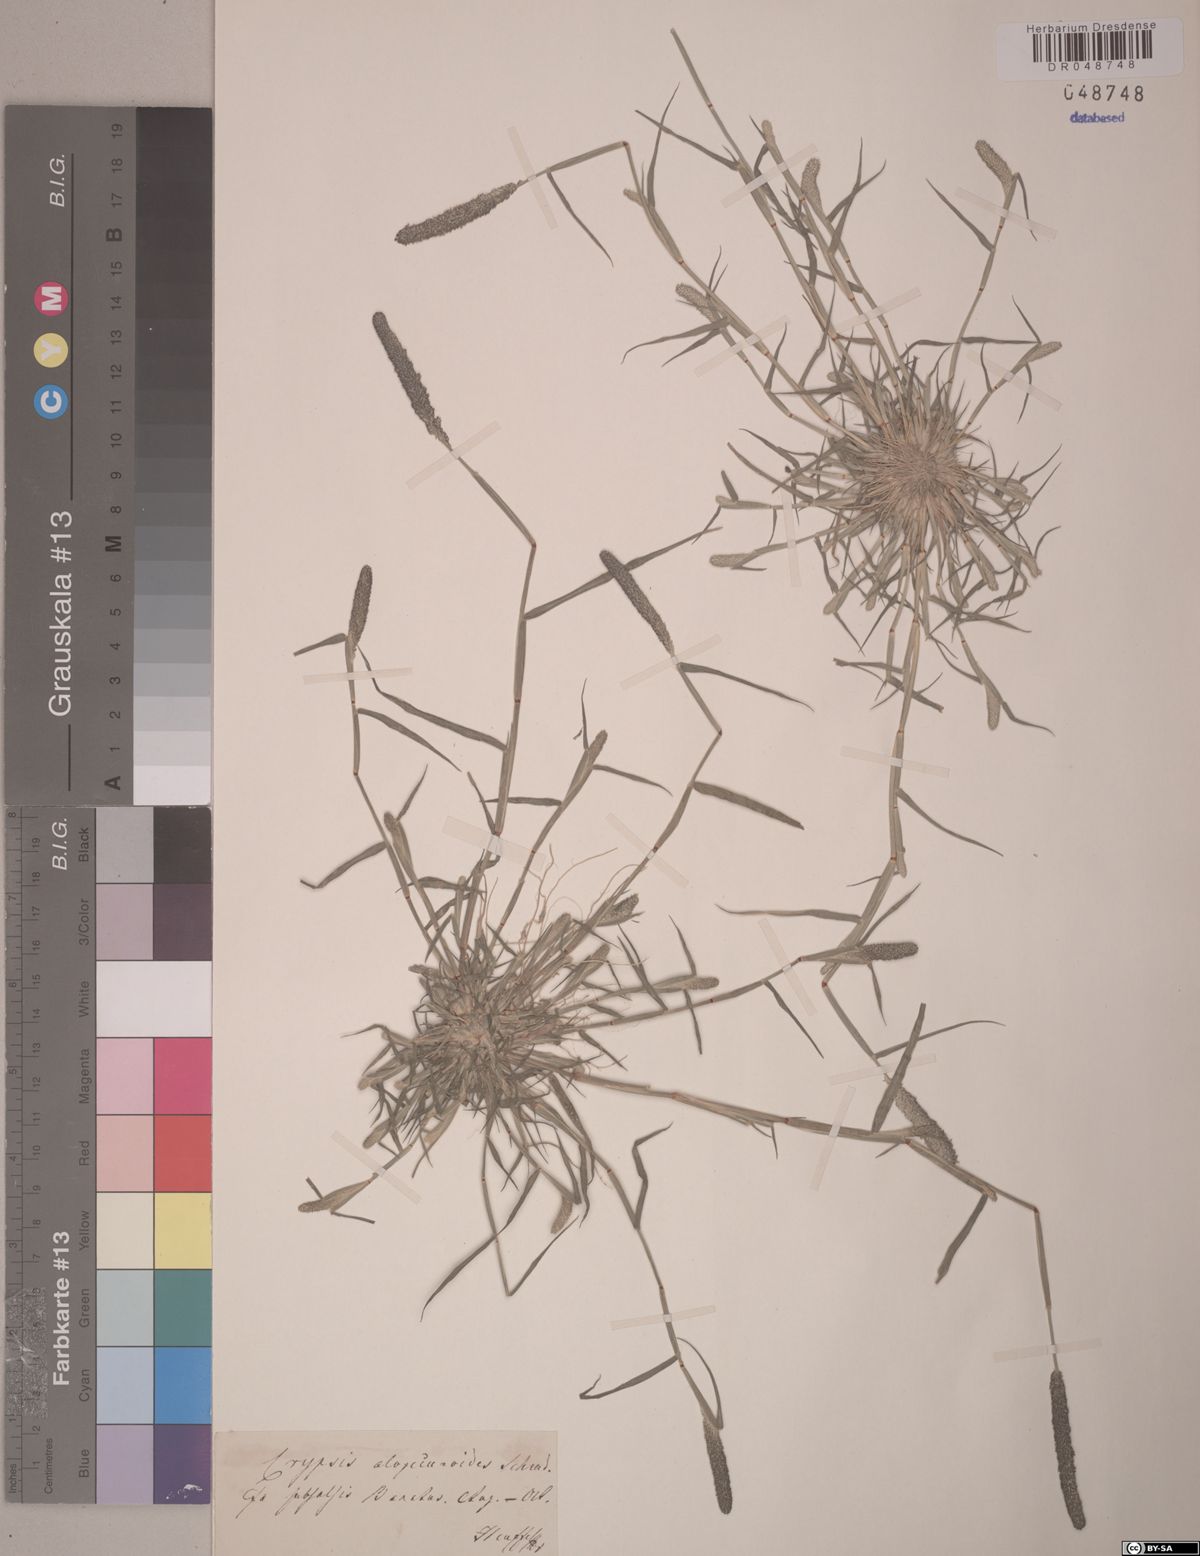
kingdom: Plantae
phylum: Tracheophyta
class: Liliopsida
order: Poales
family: Poaceae
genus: Sporobolus
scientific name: Sporobolus alopecuroides
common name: Foxtail pricklegrass
